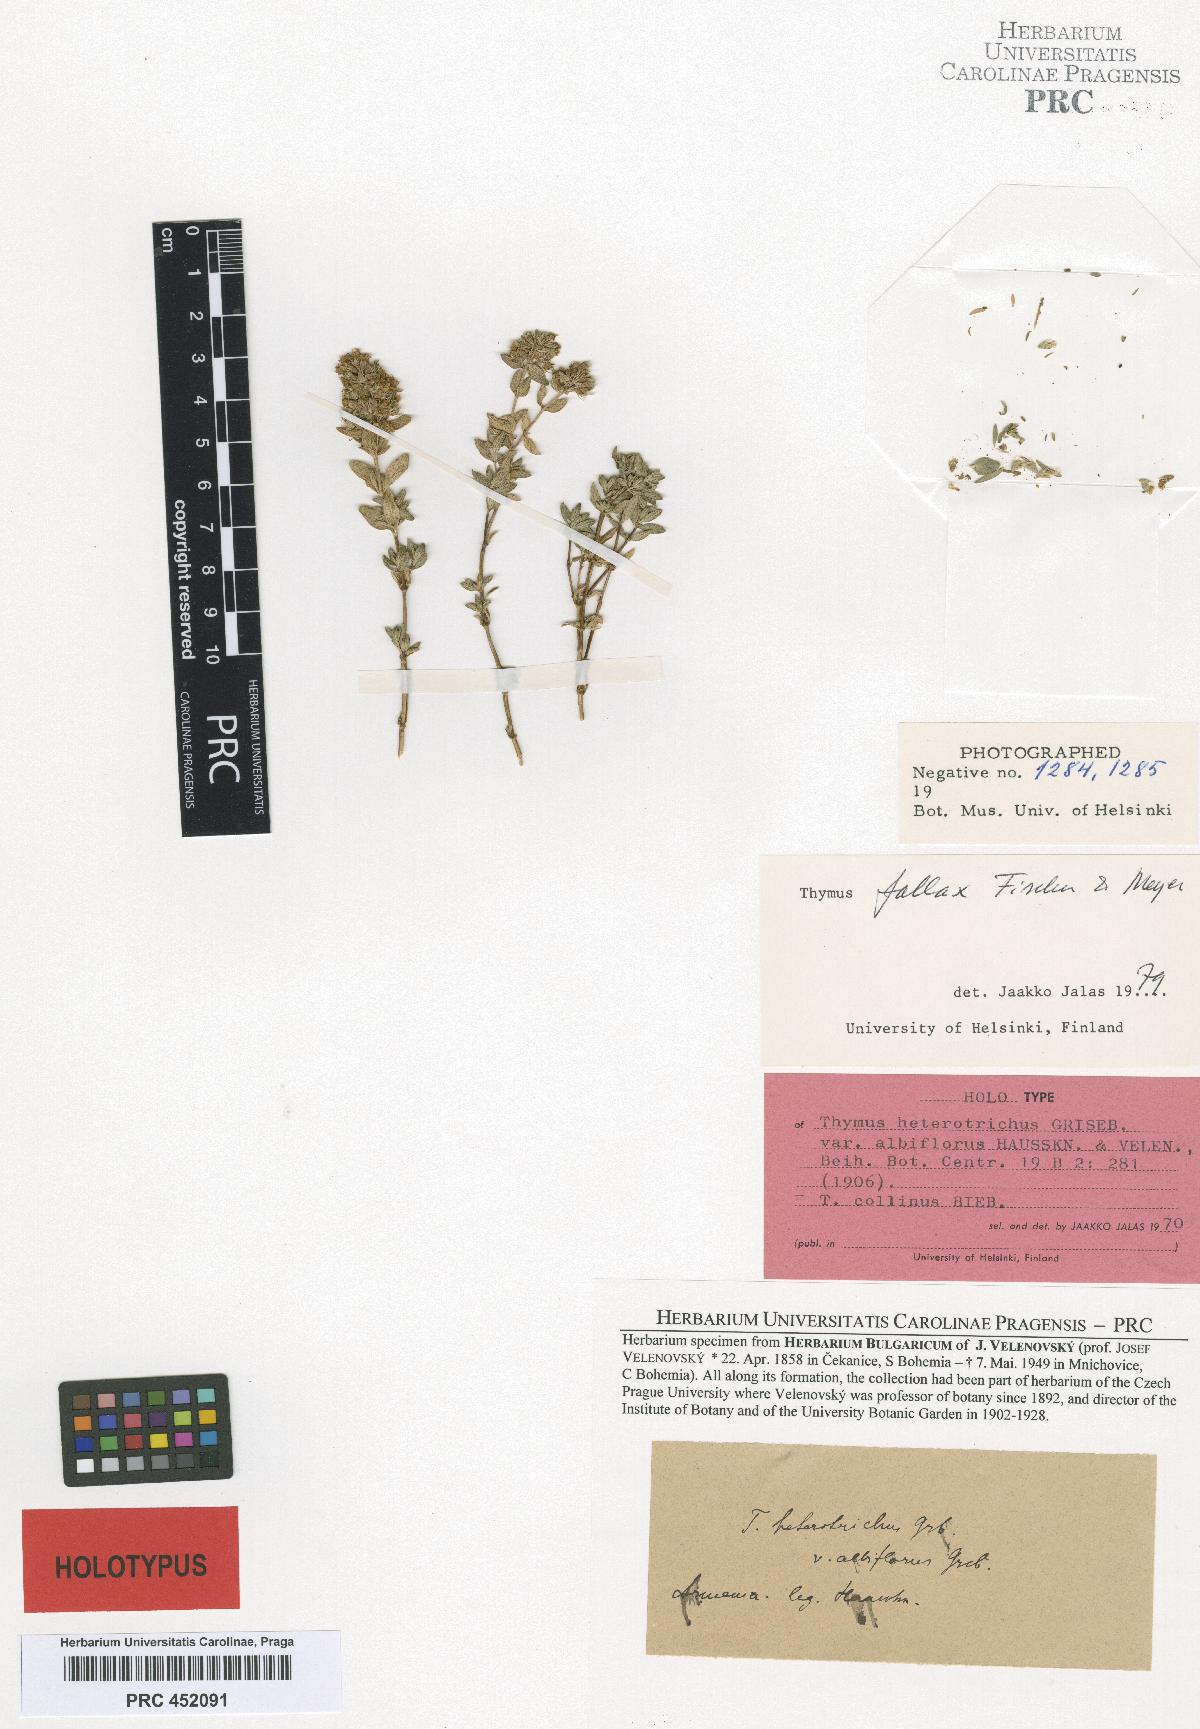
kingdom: Plantae
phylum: Tracheophyta
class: Magnoliopsida
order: Lamiales
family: Lamiaceae
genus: Thymus
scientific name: Thymus fallax
